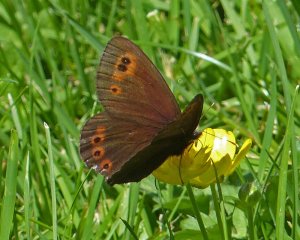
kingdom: Animalia
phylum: Arthropoda
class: Insecta
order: Lepidoptera
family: Nymphalidae
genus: Erebia
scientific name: Erebia epipsodea
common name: Common Alpine
